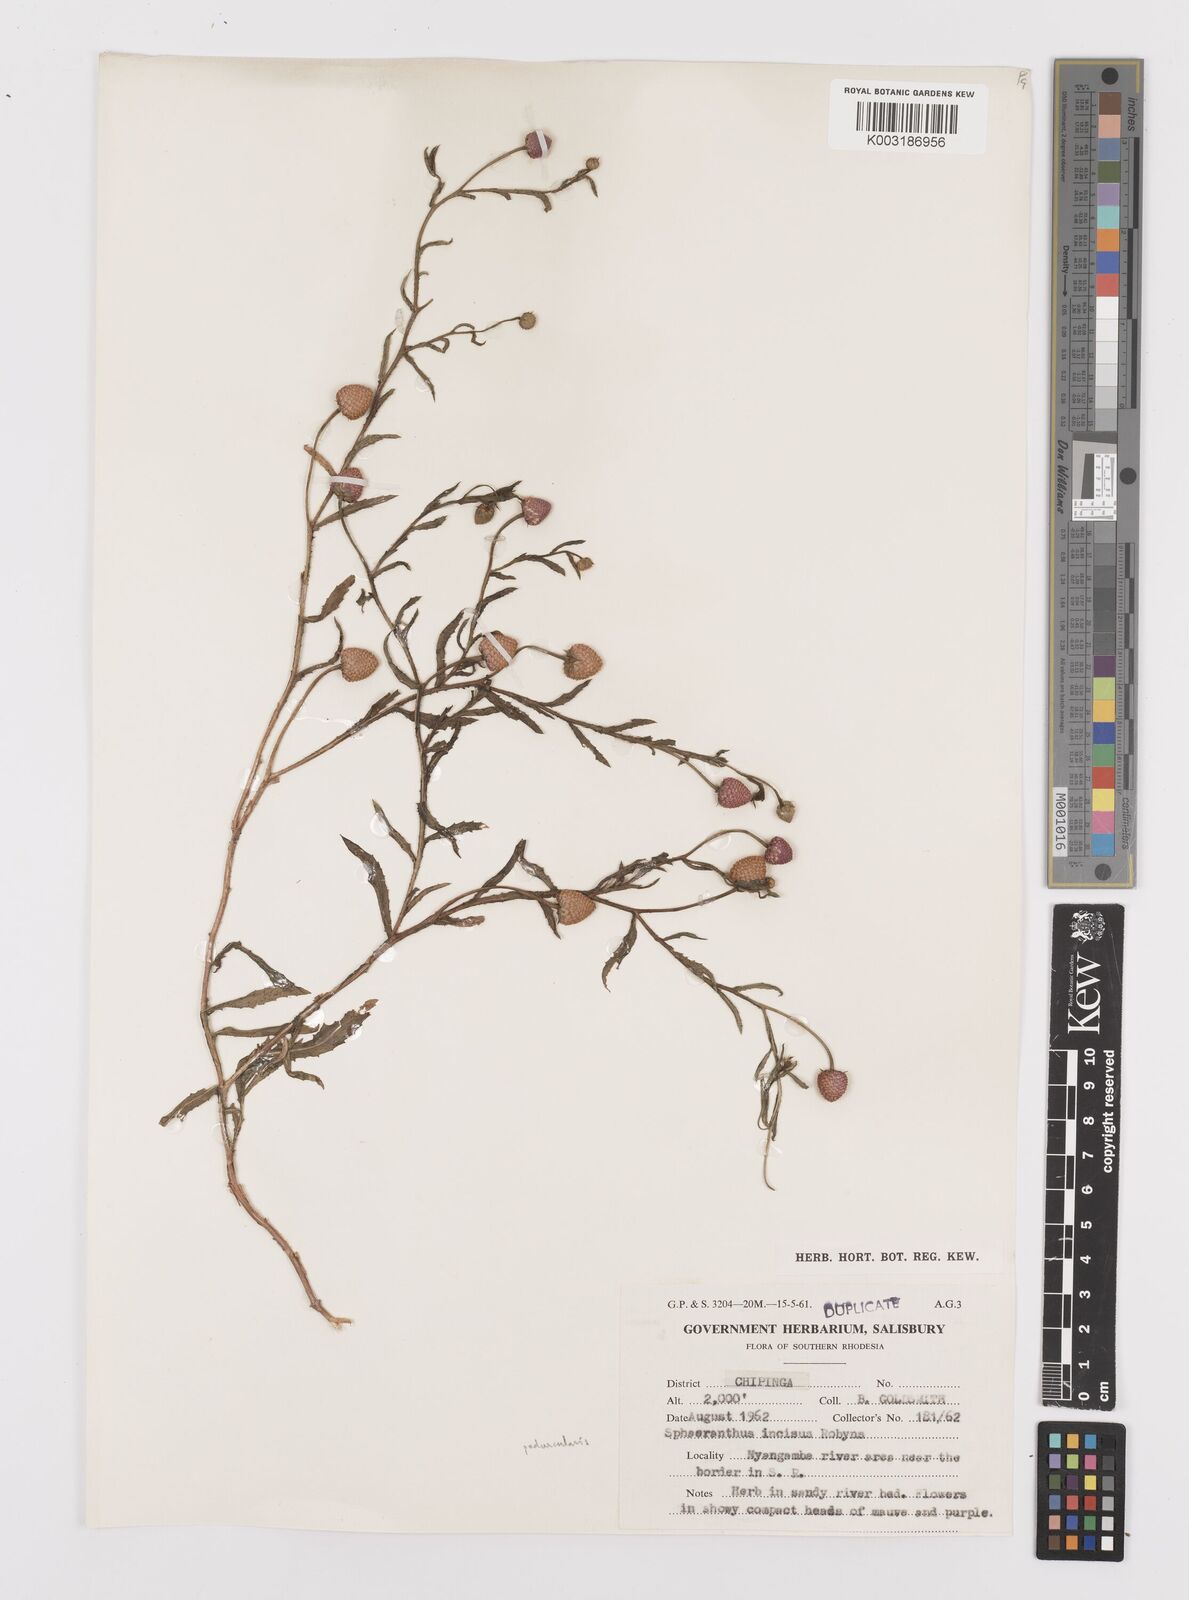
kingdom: Plantae
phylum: Tracheophyta
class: Magnoliopsida
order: Asterales
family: Asteraceae
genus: Sphaeranthus
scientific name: Sphaeranthus peduncularis
